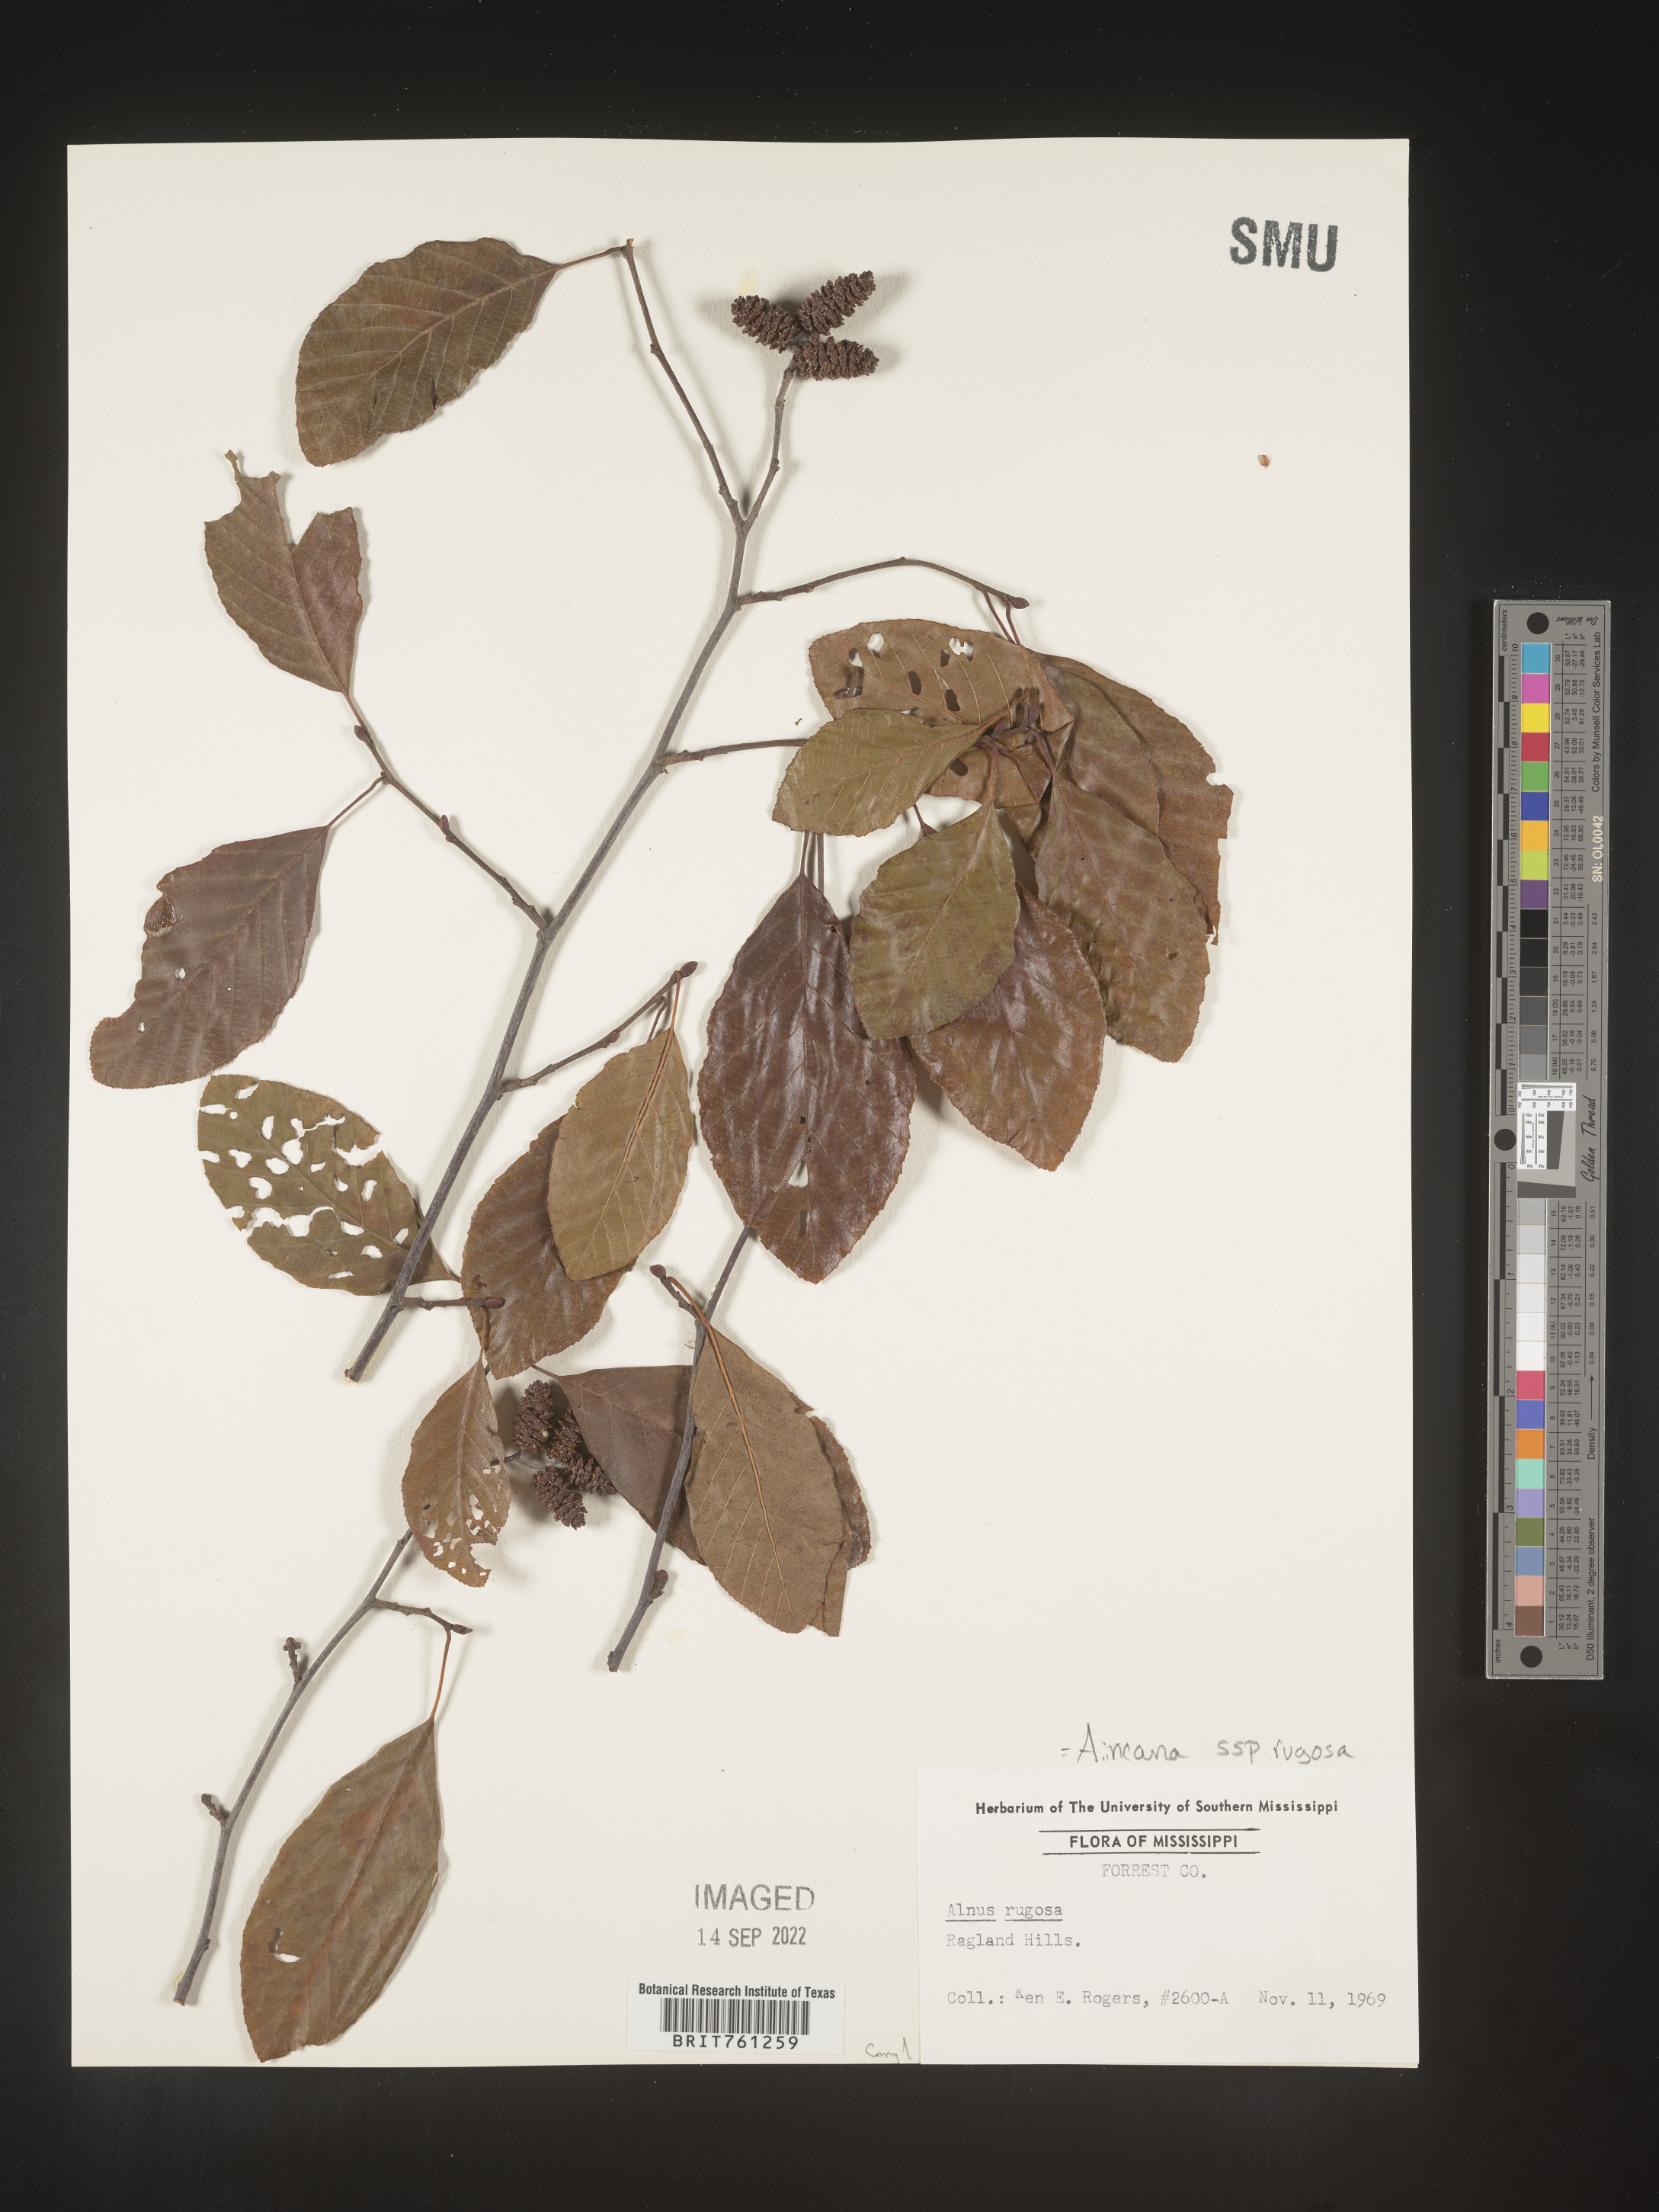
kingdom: Plantae
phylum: Tracheophyta
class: Magnoliopsida
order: Fagales
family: Betulaceae
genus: Alnus
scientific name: Alnus incana
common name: Grey alder
